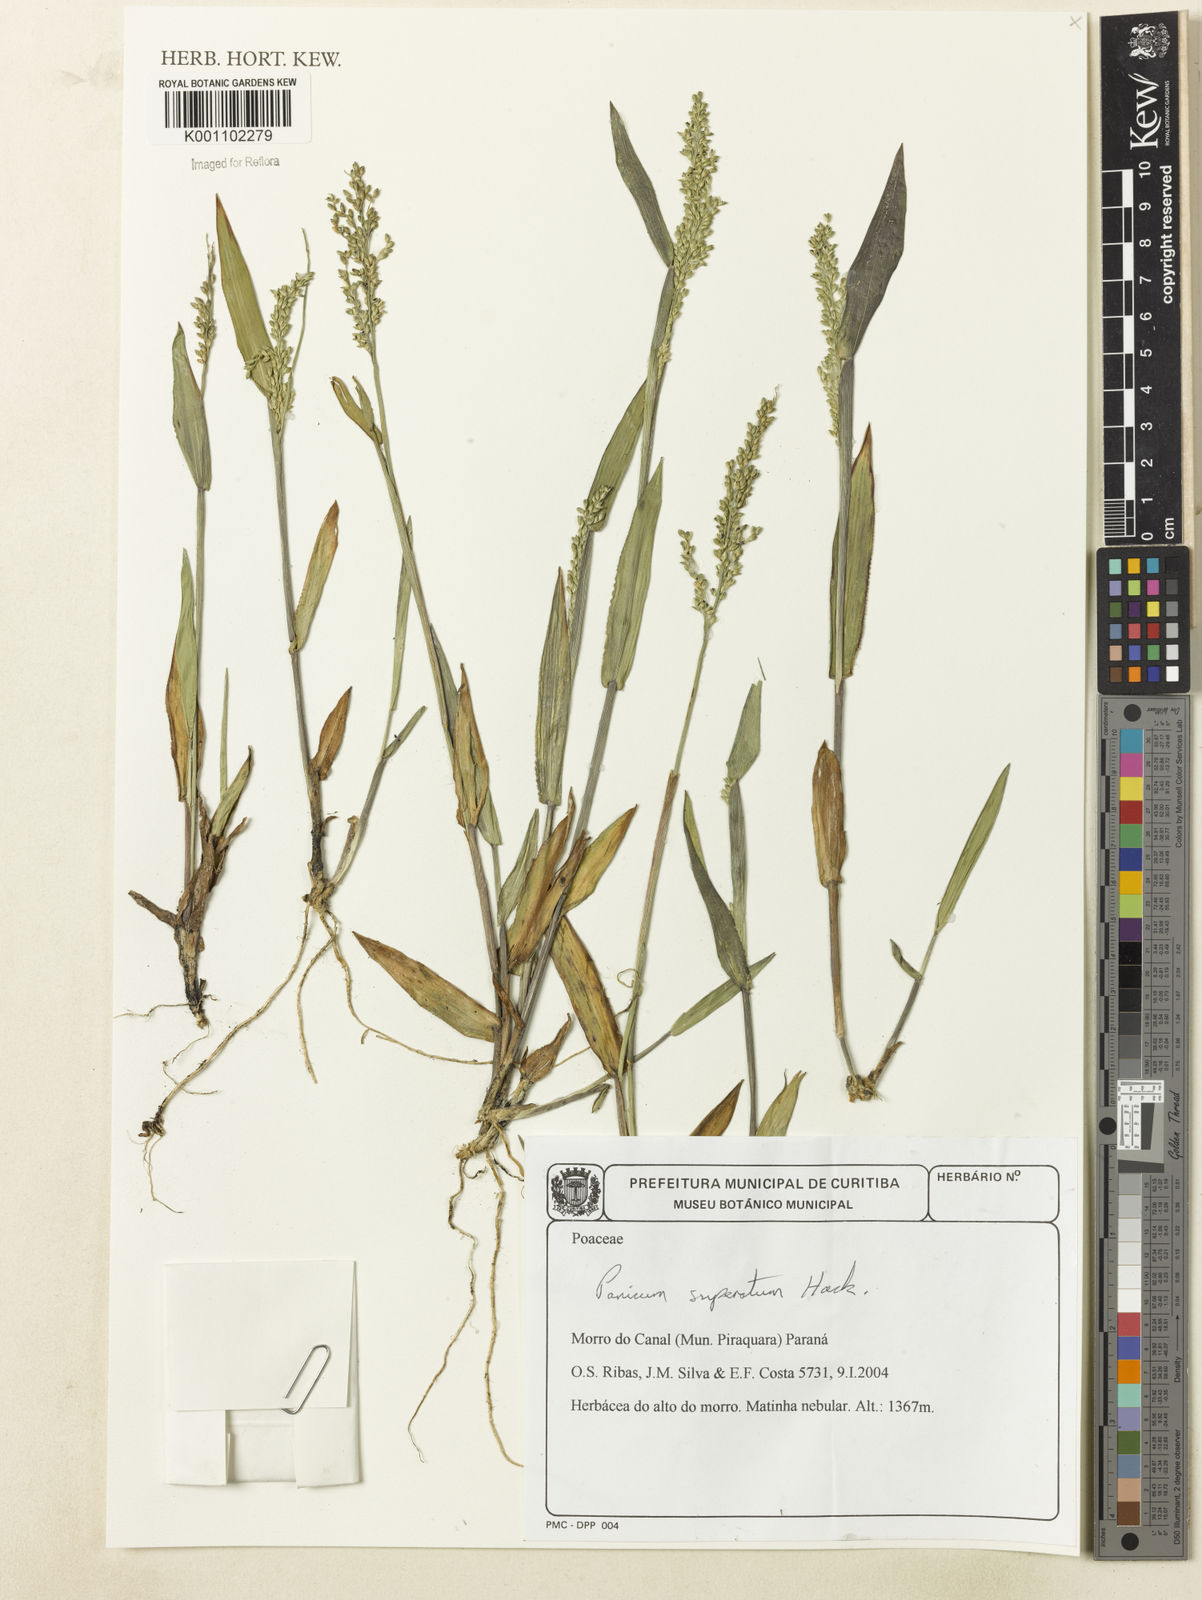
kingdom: Plantae
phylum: Tracheophyta
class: Liliopsida
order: Poales
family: Poaceae
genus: Dichanthelium
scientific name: Dichanthelium superatum
